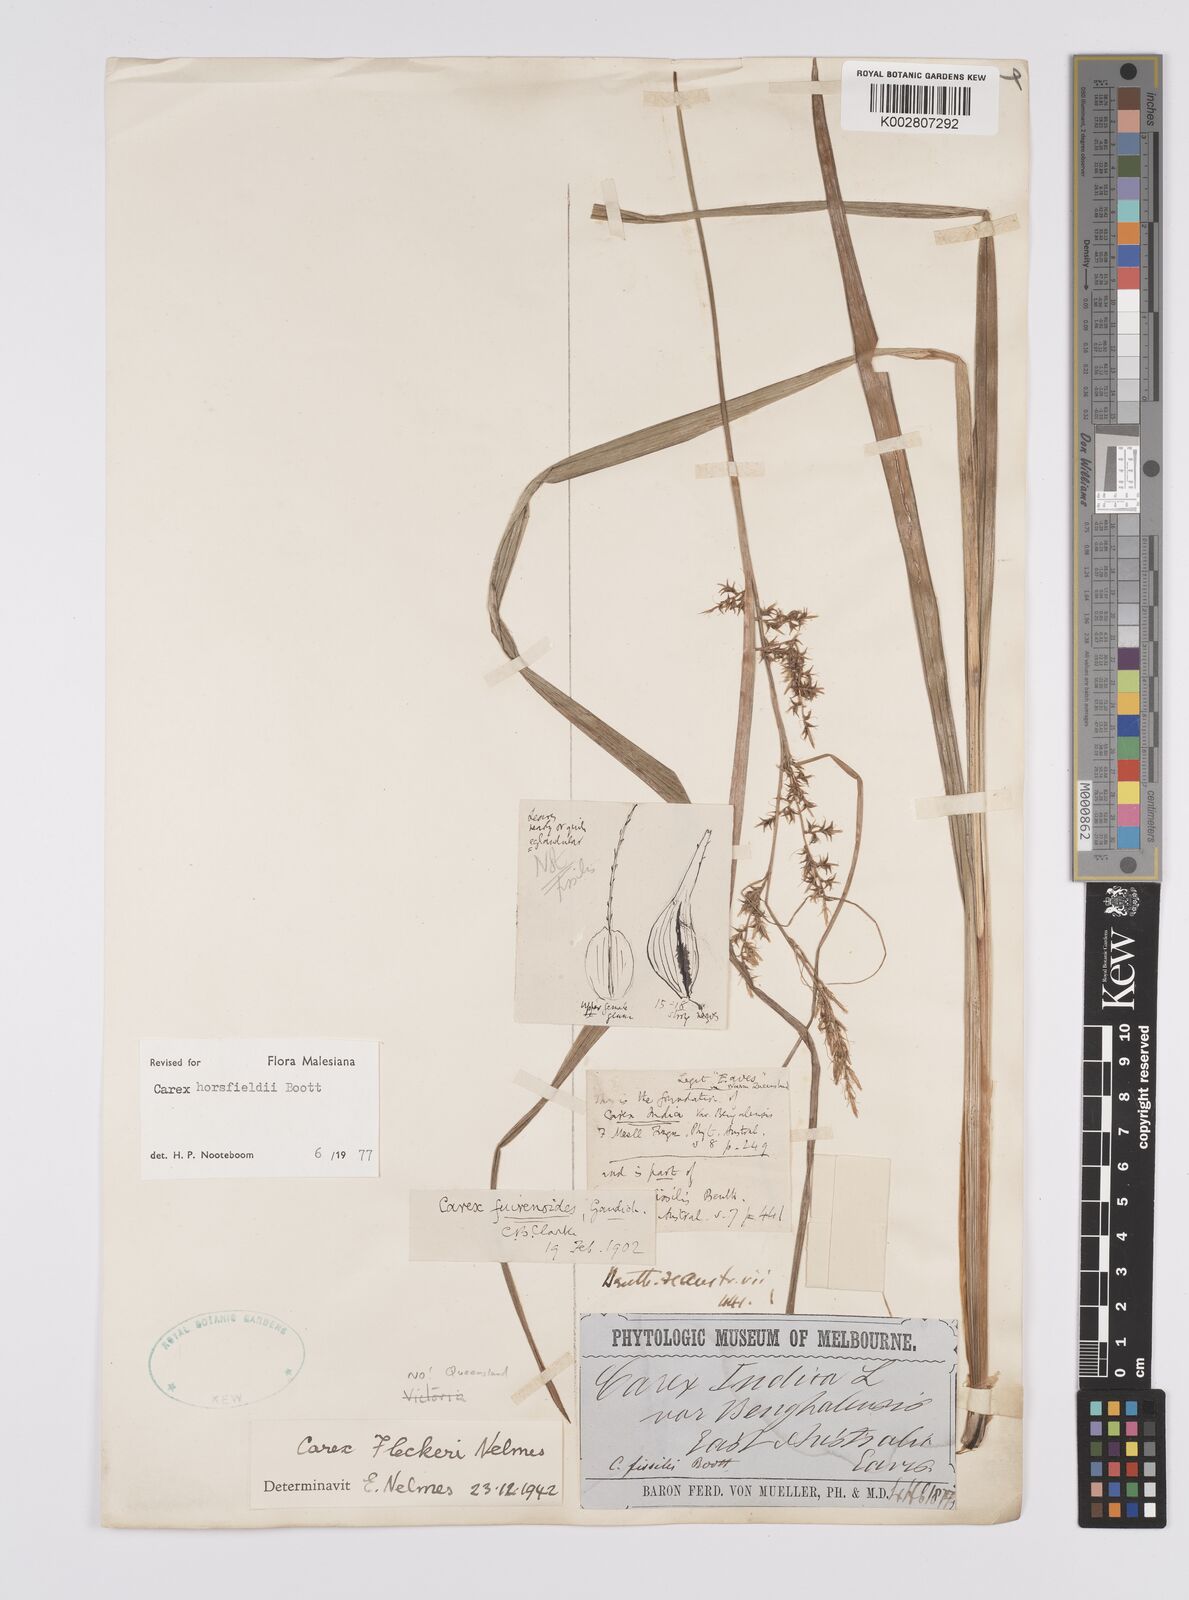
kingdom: Plantae
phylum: Tracheophyta
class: Liliopsida
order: Poales
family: Cyperaceae
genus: Carex
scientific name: Carex horsfieldii
